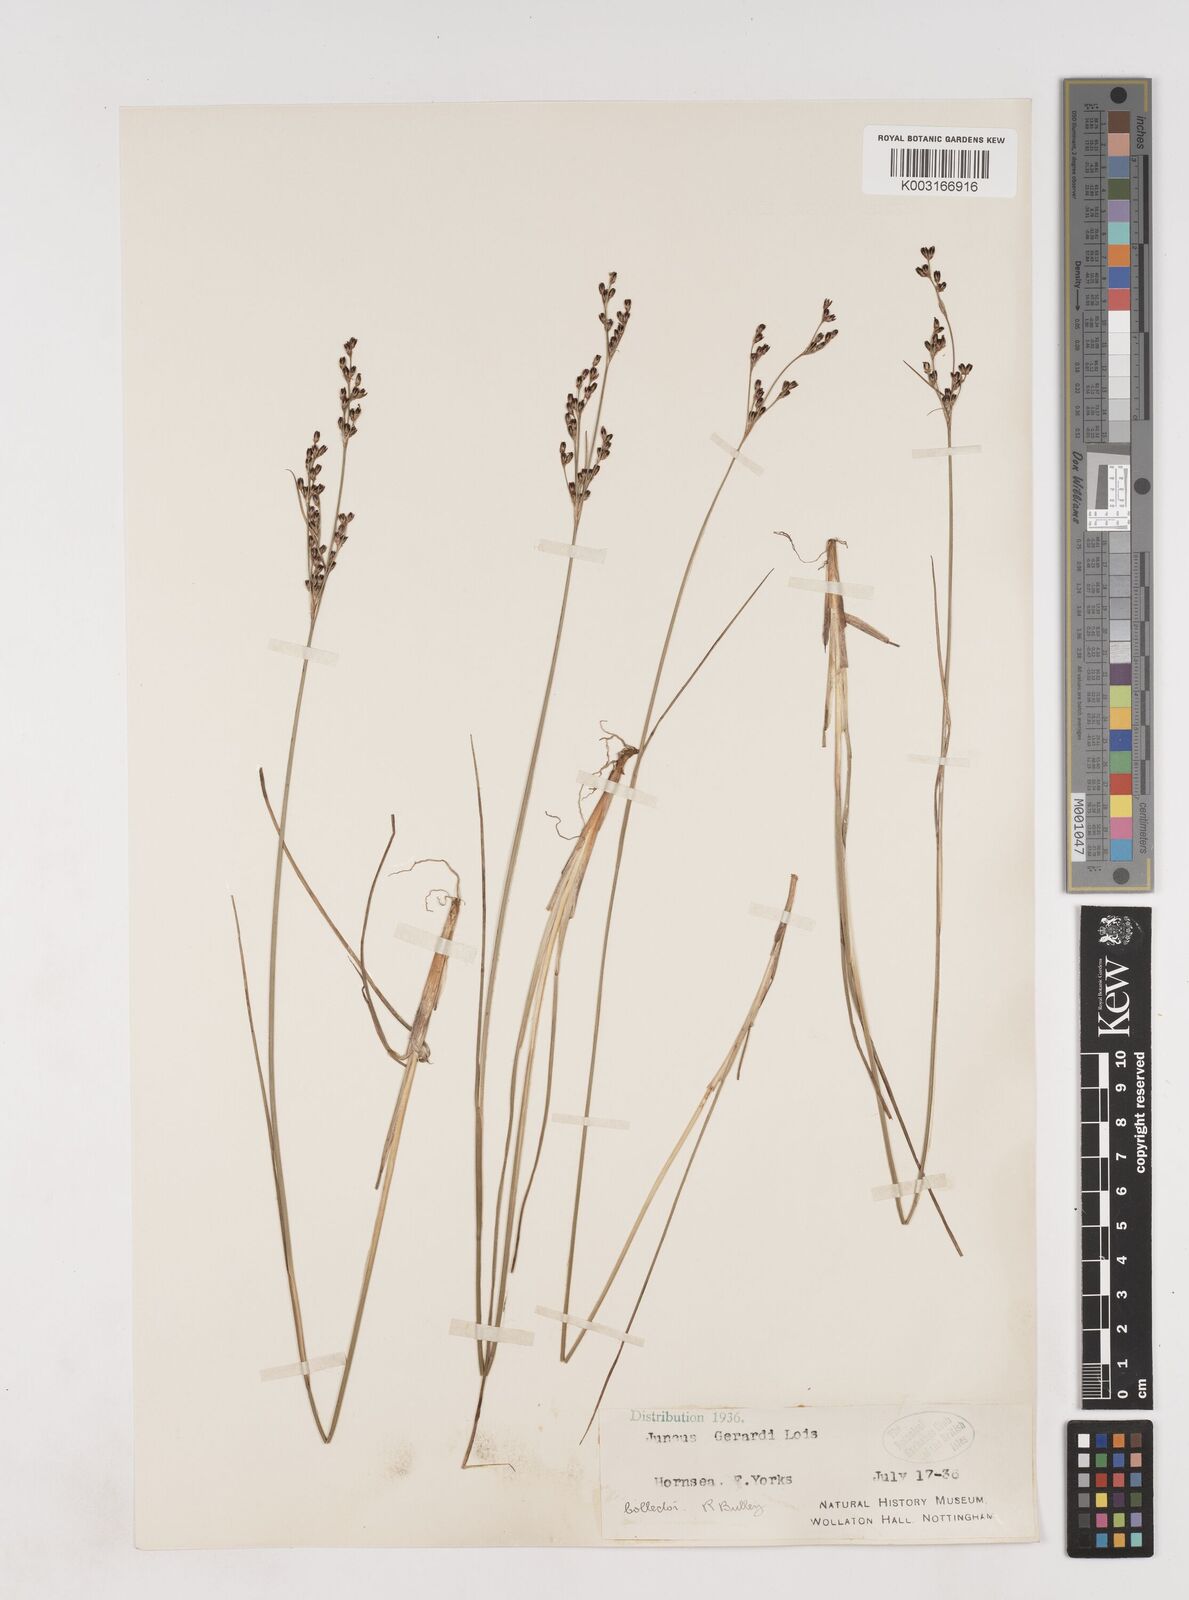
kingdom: Plantae
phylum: Tracheophyta
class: Liliopsida
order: Poales
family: Juncaceae
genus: Juncus
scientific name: Juncus gerardi
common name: Saltmarsh rush
